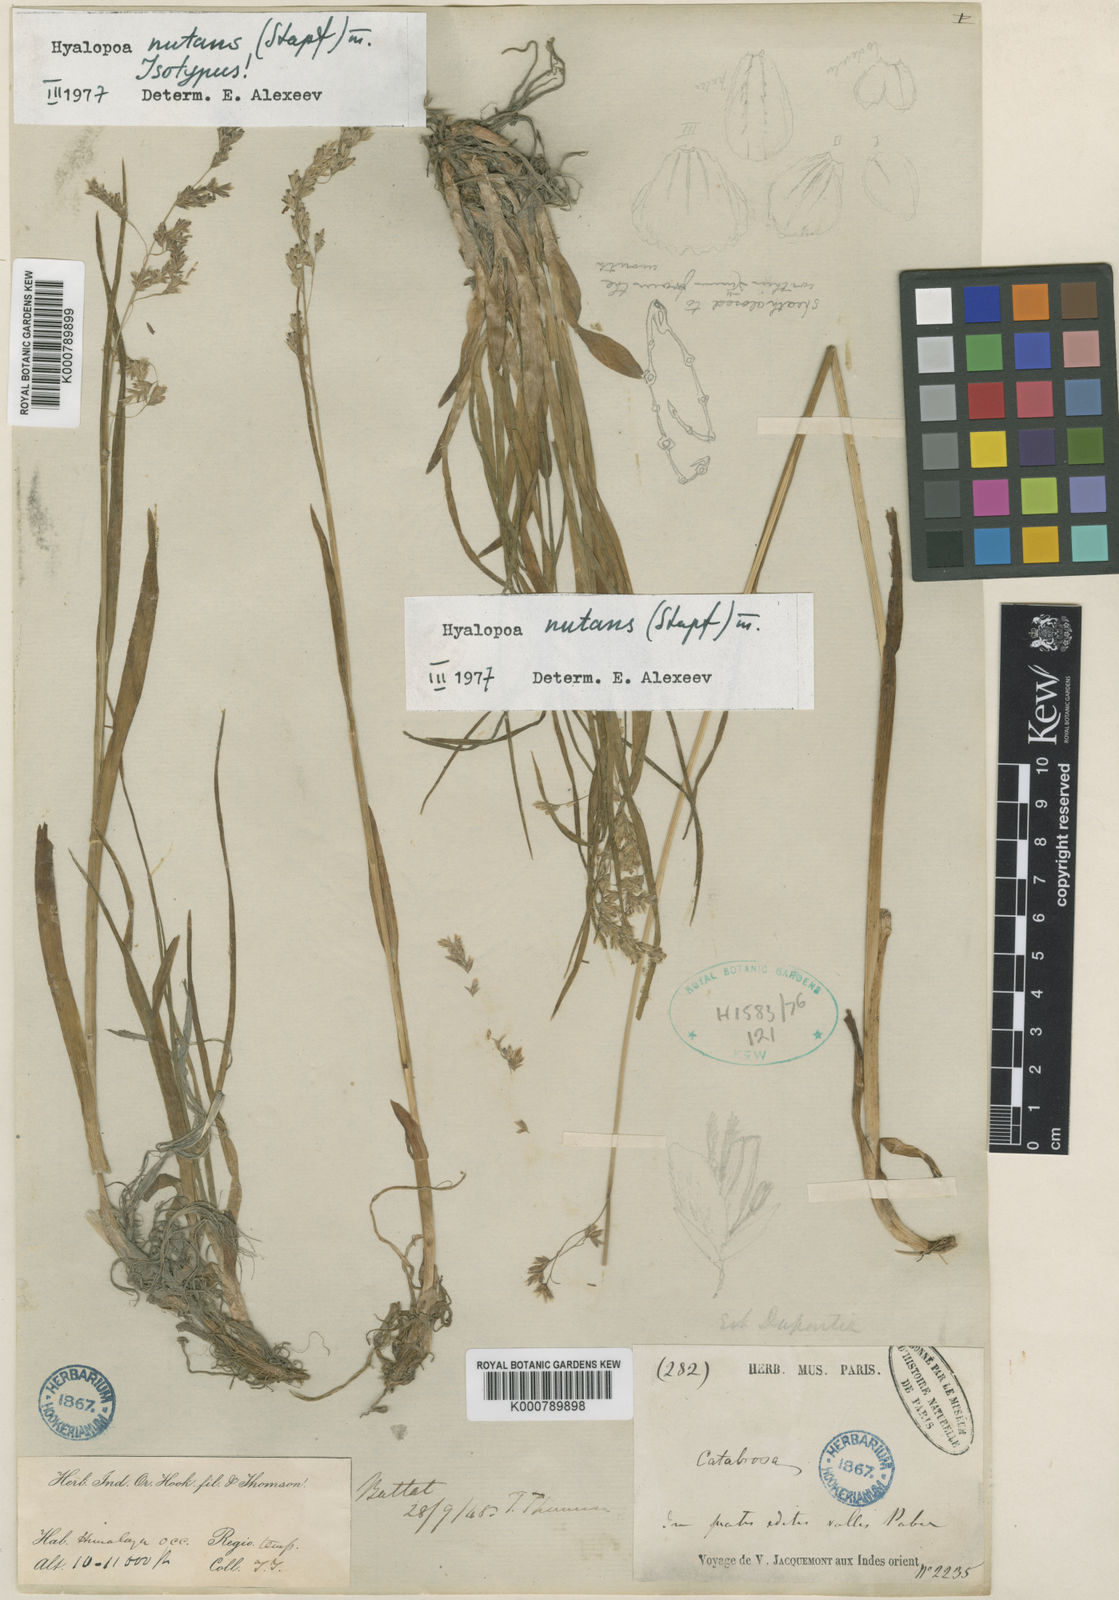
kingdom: Plantae
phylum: Tracheophyta
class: Liliopsida
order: Poales
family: Poaceae
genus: Hyalopoa
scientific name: Hyalopoa nutans
